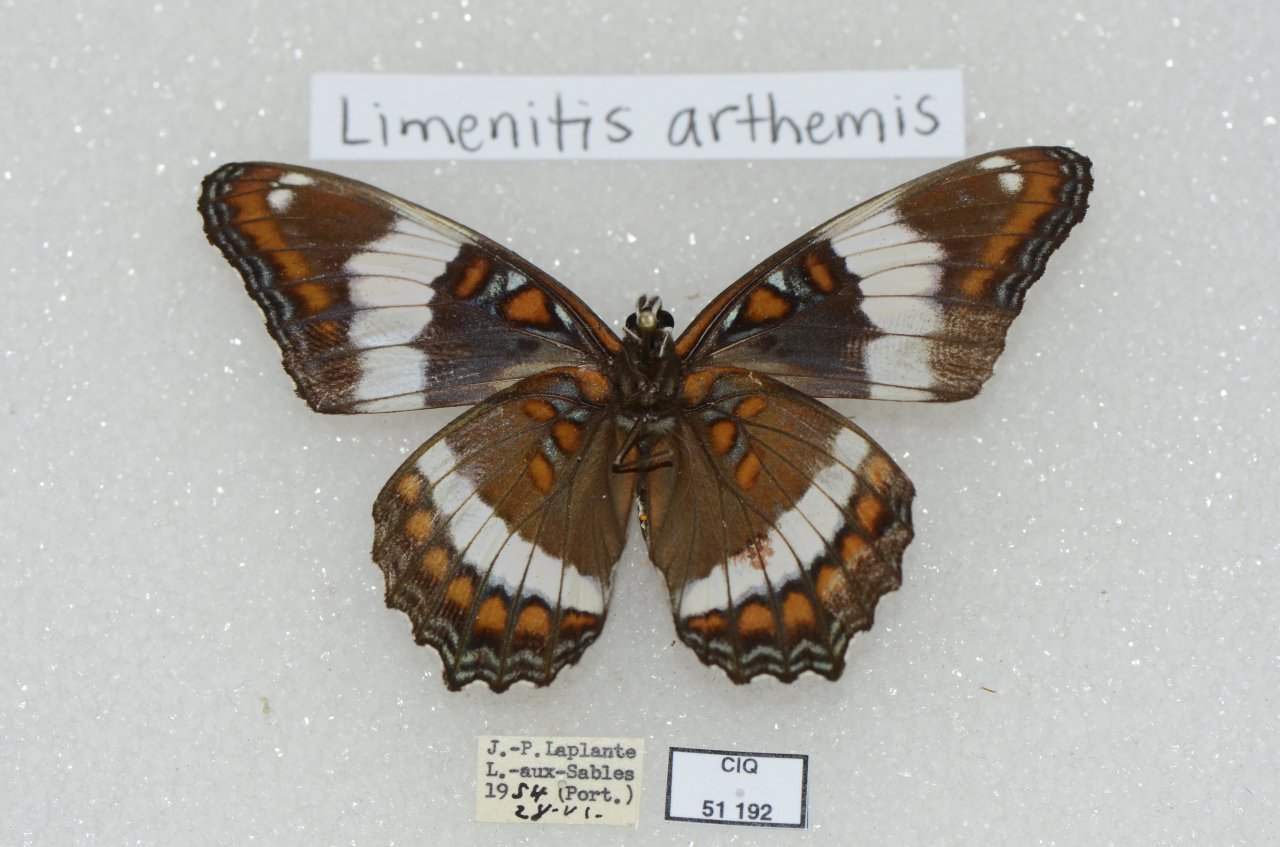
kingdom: Animalia
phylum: Arthropoda
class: Insecta
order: Lepidoptera
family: Nymphalidae
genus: Limenitis
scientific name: Limenitis arthemis
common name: Red-spotted Admiral
